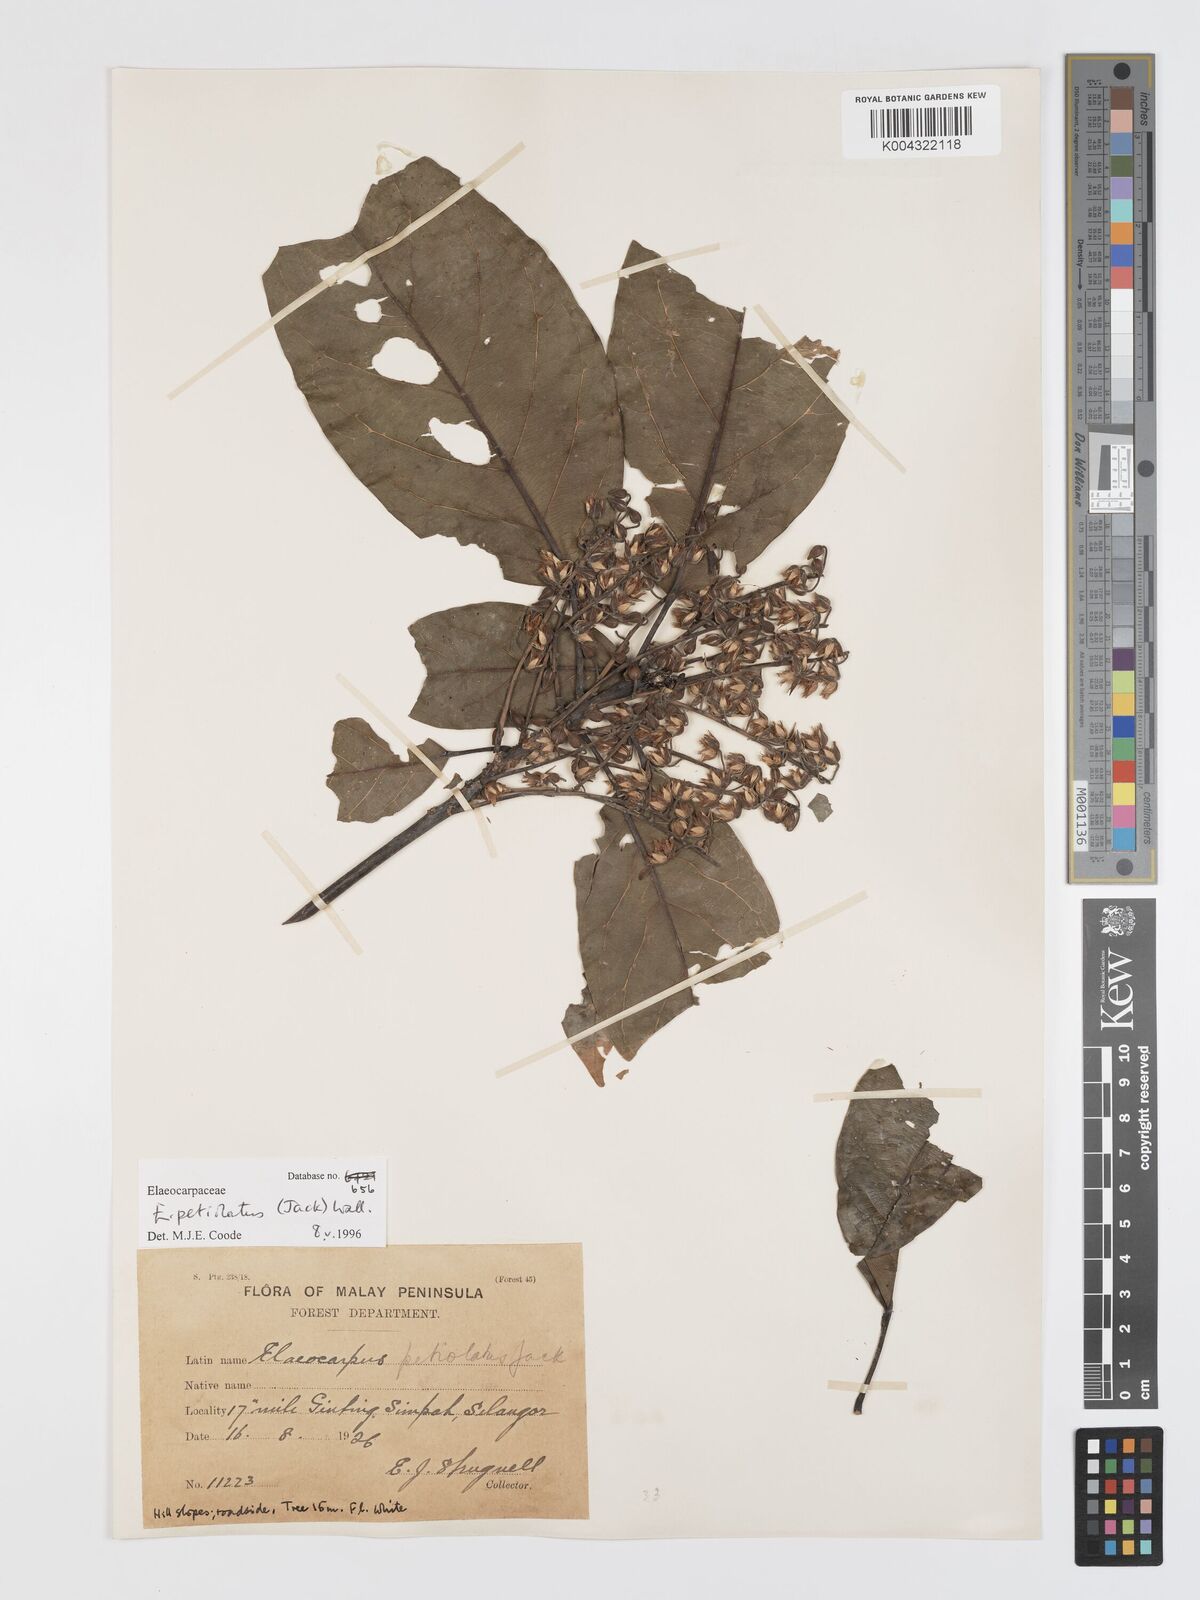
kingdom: Plantae
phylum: Tracheophyta
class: Magnoliopsida
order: Oxalidales
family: Elaeocarpaceae
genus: Elaeocarpus
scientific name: Elaeocarpus petiolatus
